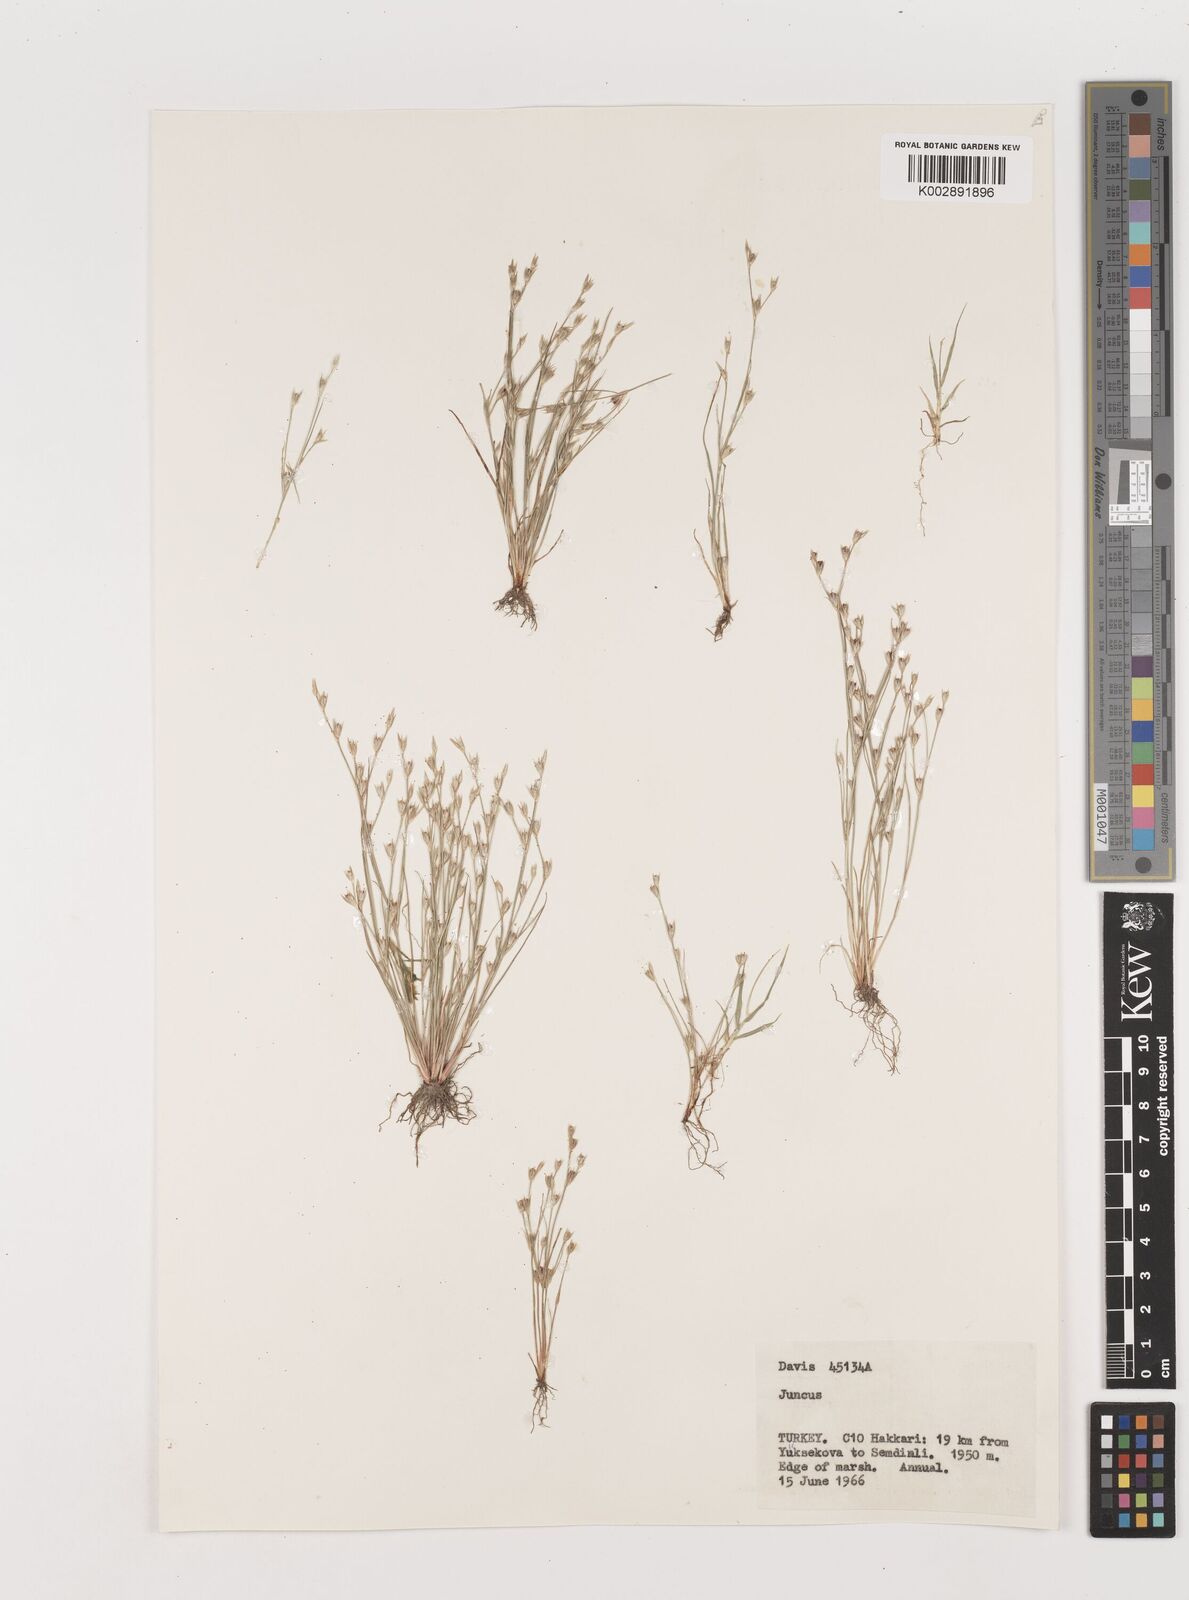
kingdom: Plantae
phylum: Tracheophyta
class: Liliopsida
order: Poales
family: Juncaceae
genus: Juncus
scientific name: Juncus
